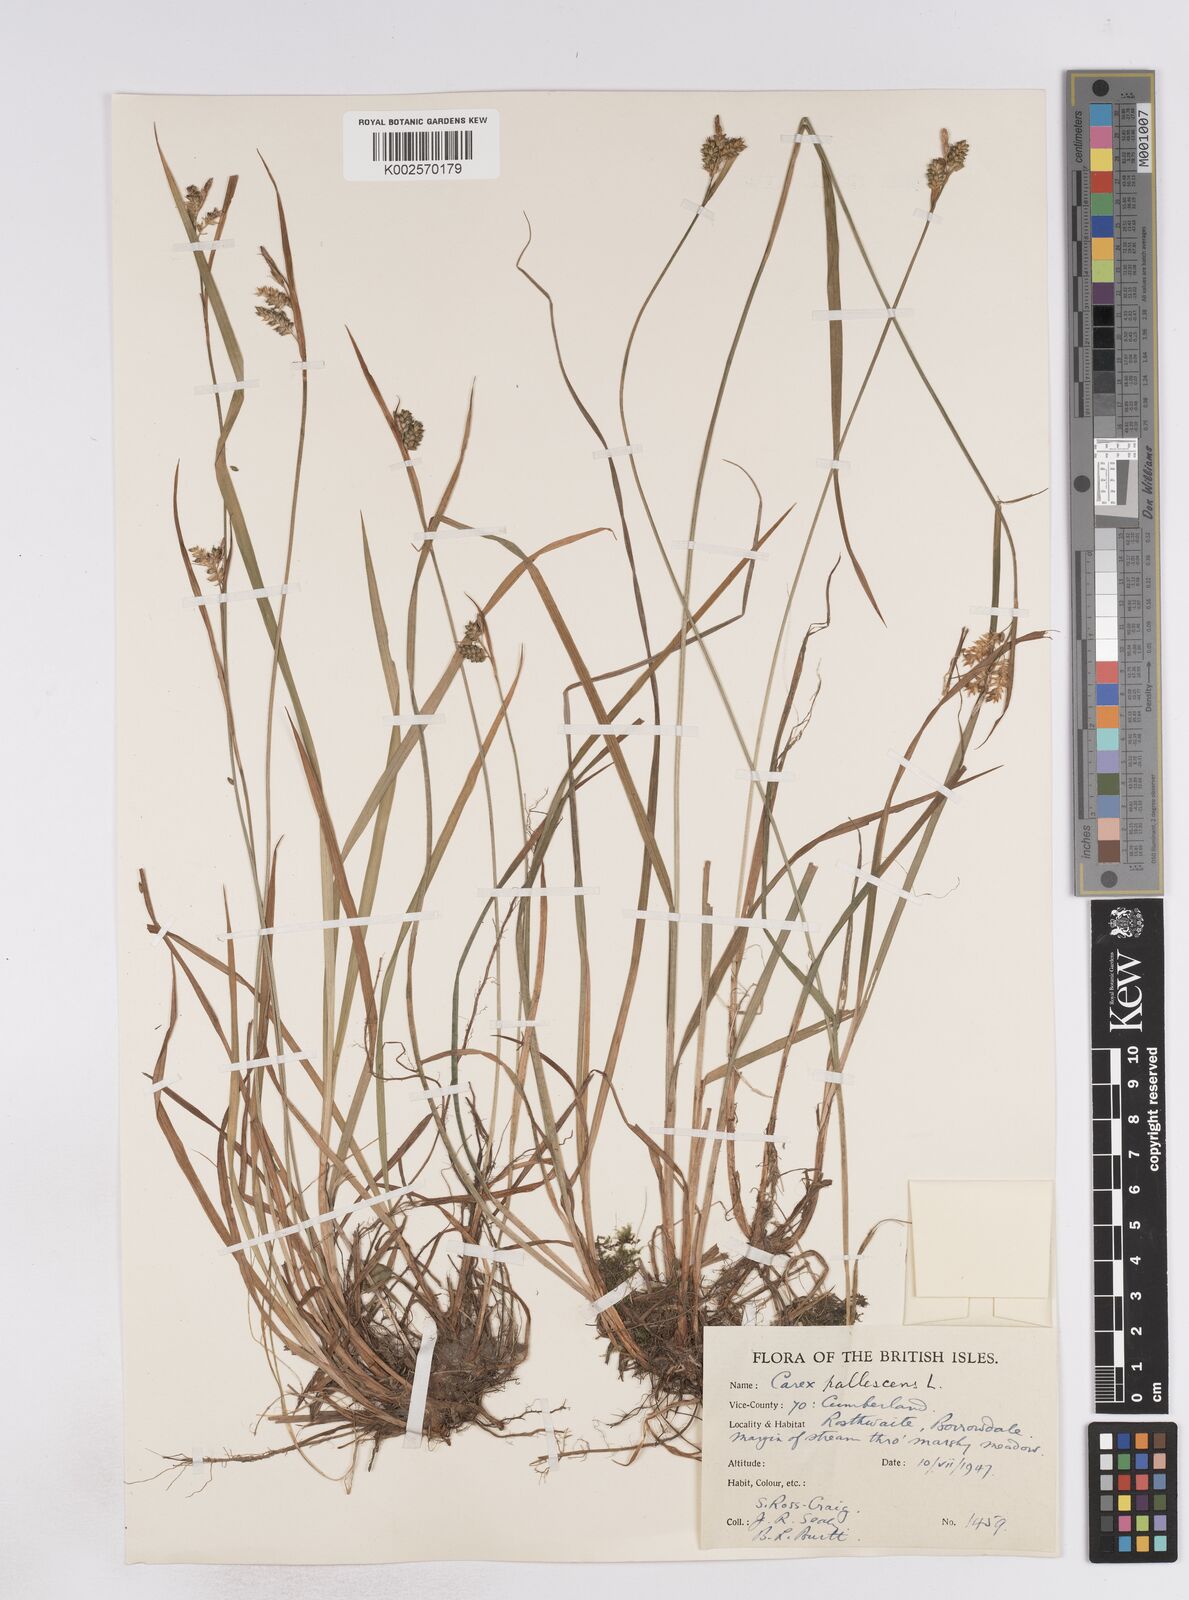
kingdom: Plantae
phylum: Tracheophyta
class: Liliopsida
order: Poales
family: Cyperaceae
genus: Carex
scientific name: Carex pallescens
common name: Pale sedge
